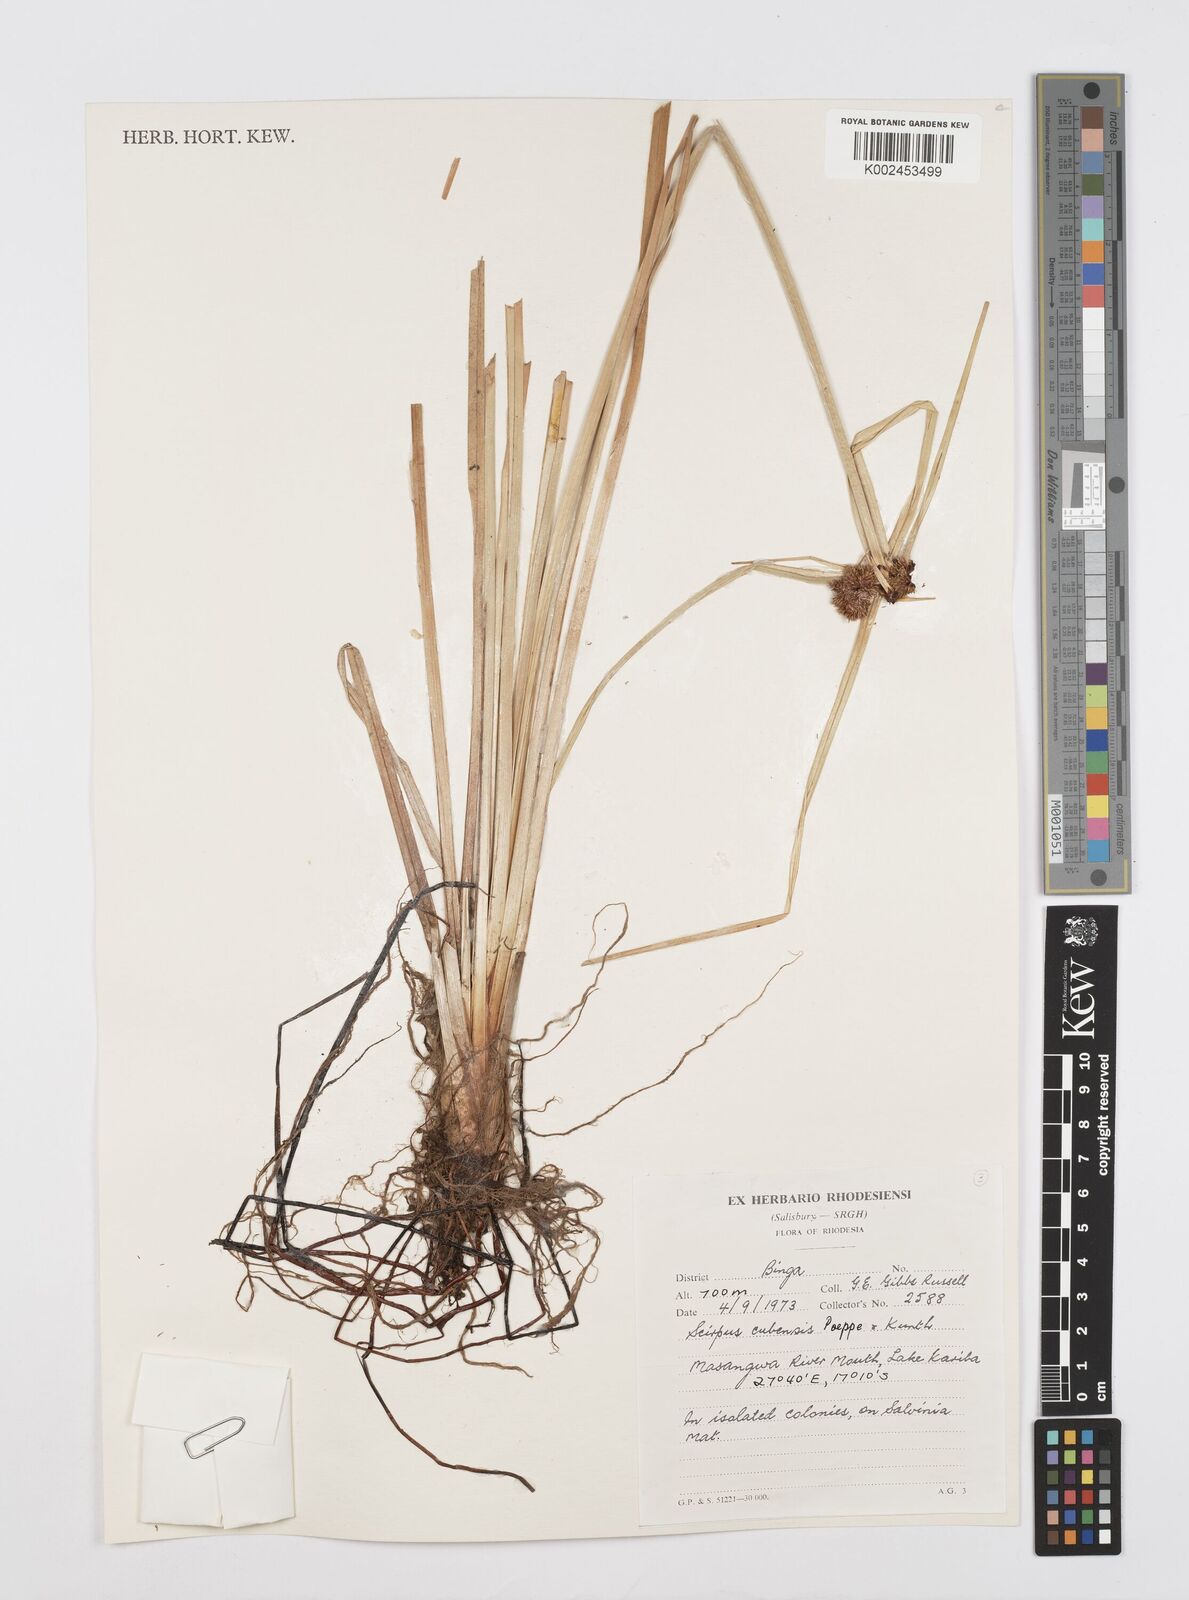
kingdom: Plantae
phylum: Tracheophyta
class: Liliopsida
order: Poales
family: Cyperaceae
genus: Cyperus
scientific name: Cyperus elegans
